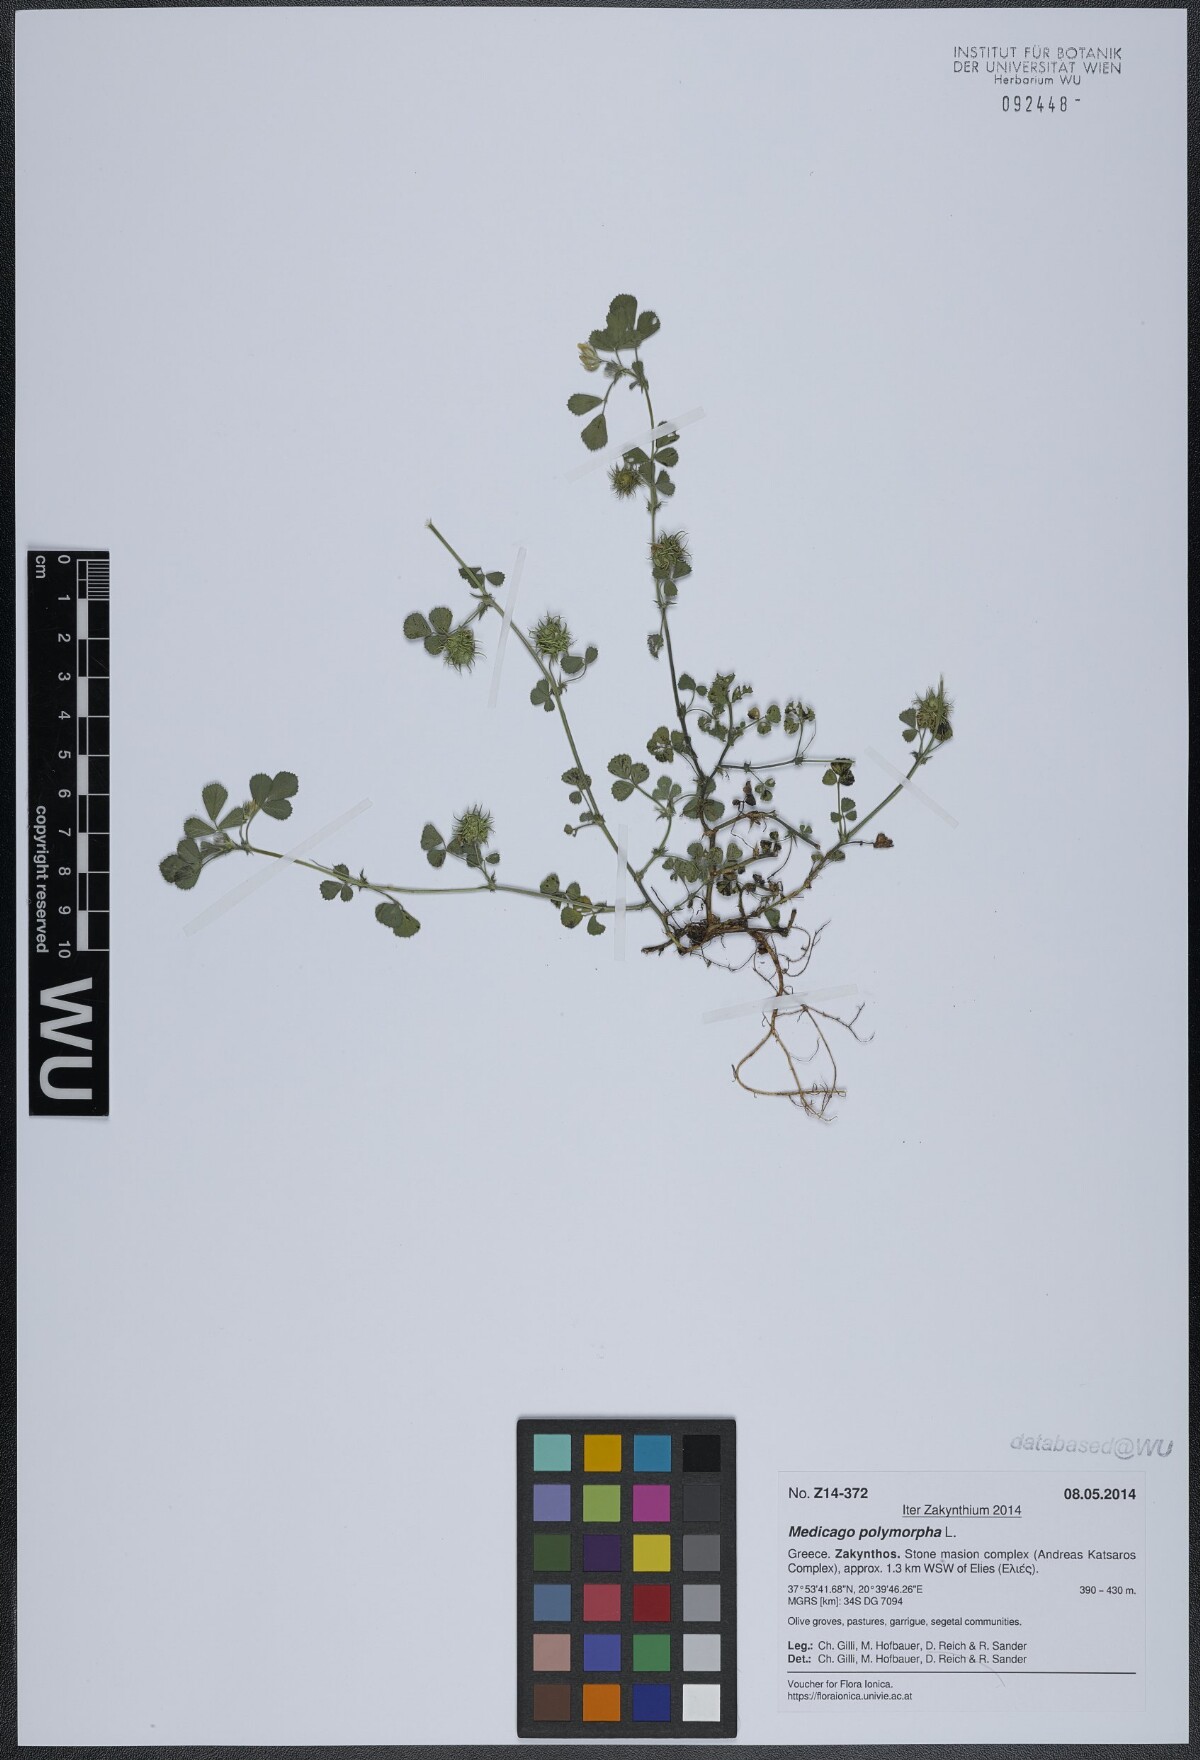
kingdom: Plantae
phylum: Tracheophyta
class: Magnoliopsida
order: Fabales
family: Fabaceae
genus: Medicago
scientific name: Medicago polymorpha
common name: Burclover
